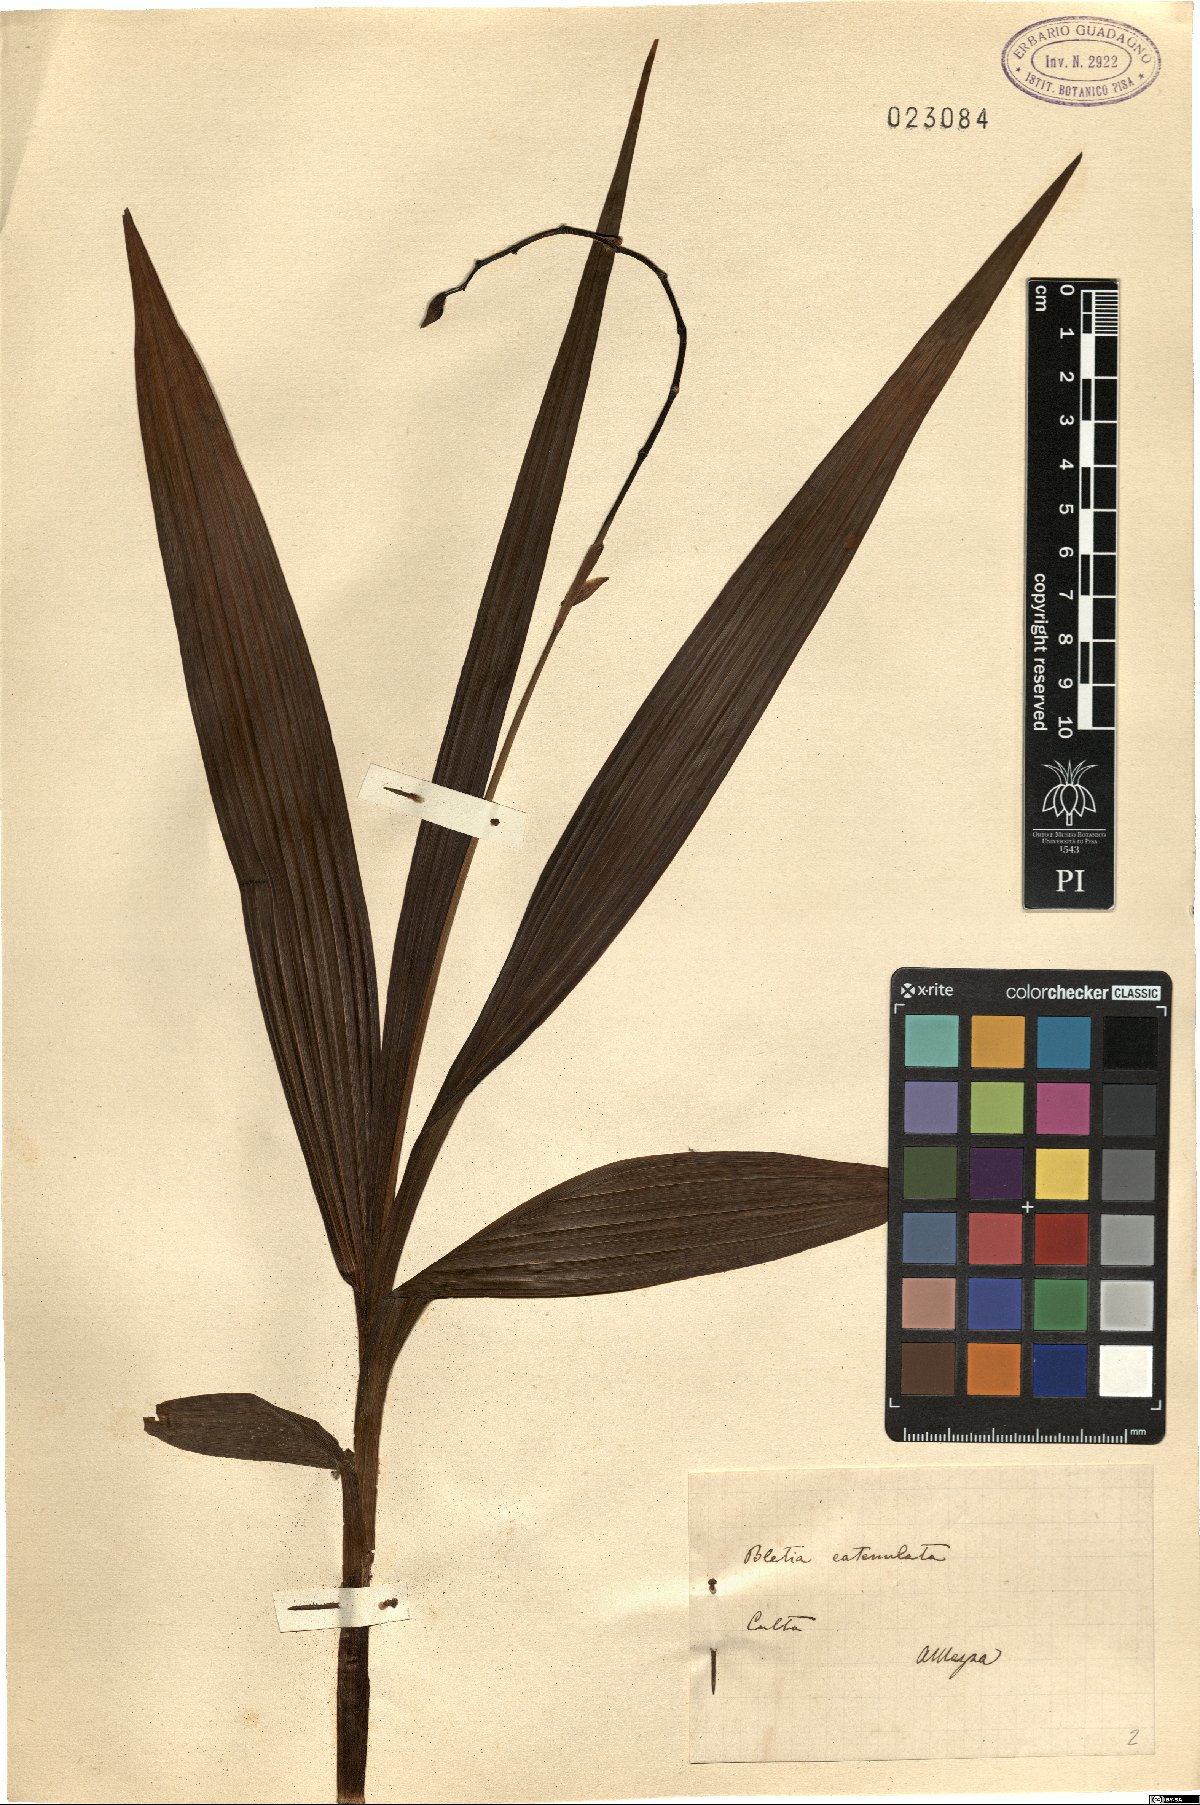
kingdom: Plantae
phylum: Tracheophyta
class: Liliopsida
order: Asparagales
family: Orchidaceae
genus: Bletia
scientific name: Bletia catenulata
